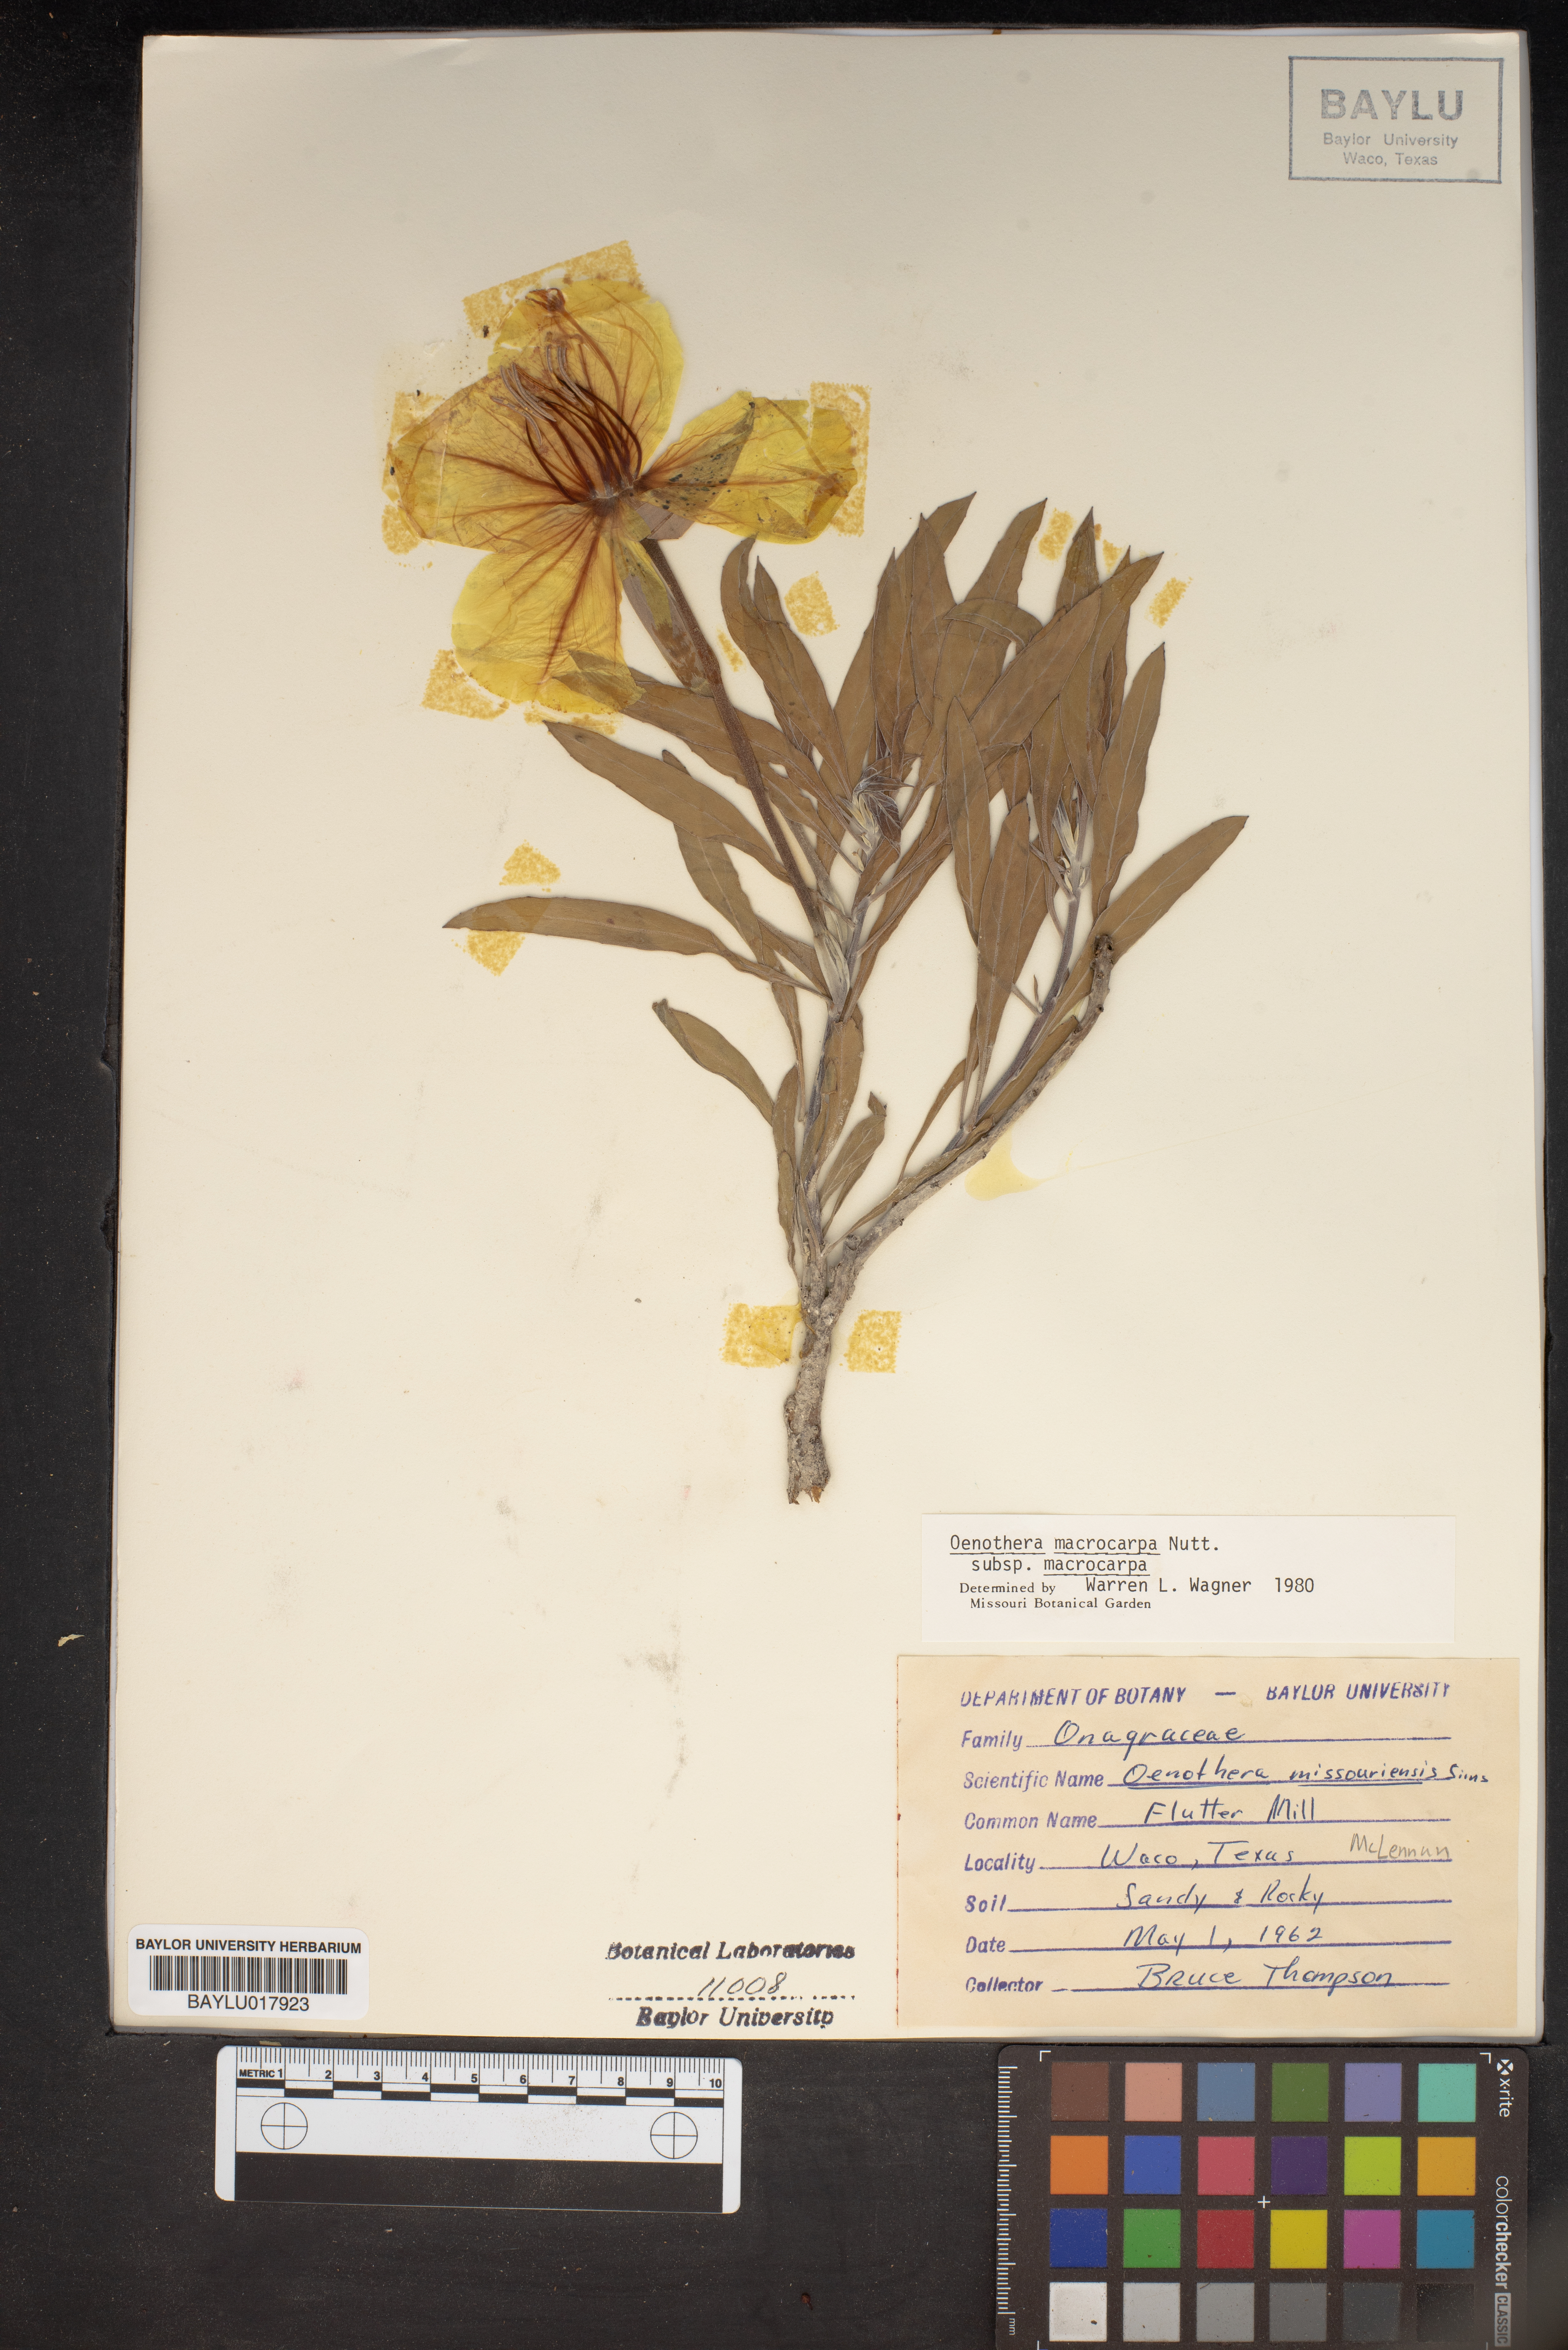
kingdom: Plantae
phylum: Tracheophyta
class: Magnoliopsida
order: Myrtales
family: Onagraceae
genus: Oenothera
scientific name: Oenothera macrocarpa
